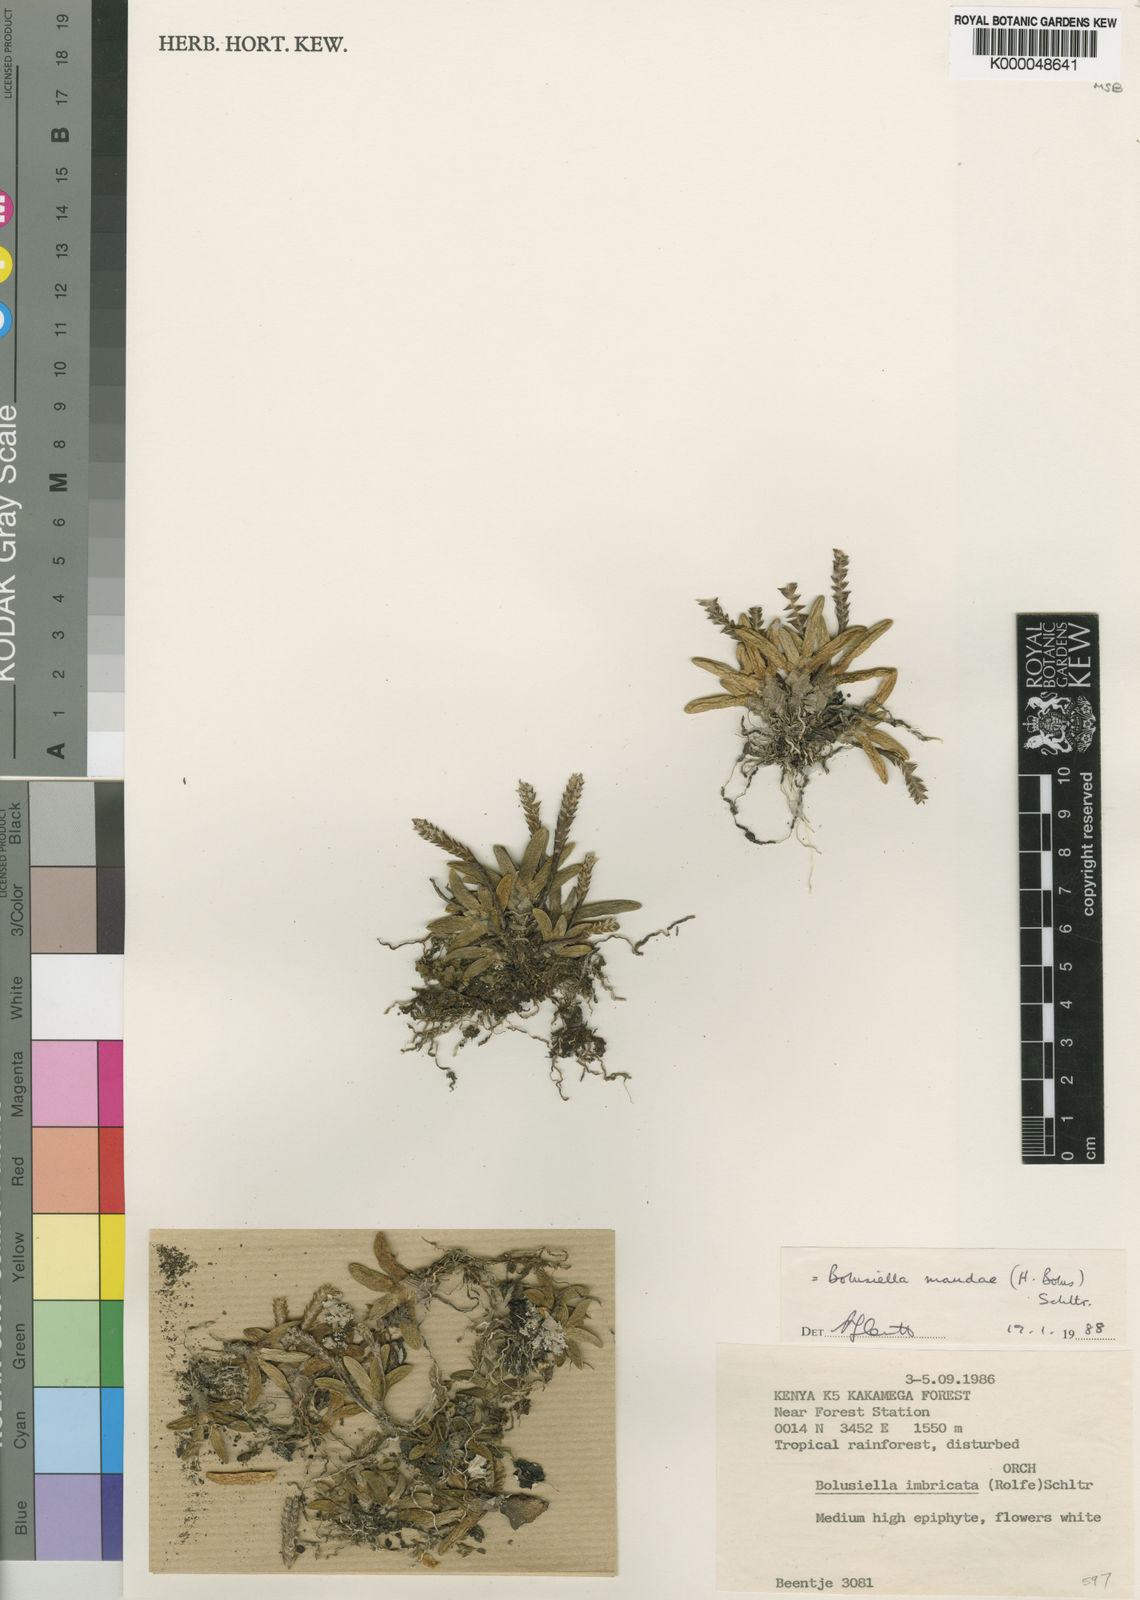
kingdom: Plantae
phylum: Tracheophyta
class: Liliopsida
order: Asparagales
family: Orchidaceae
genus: Bolusiella
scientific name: Bolusiella maudiae
